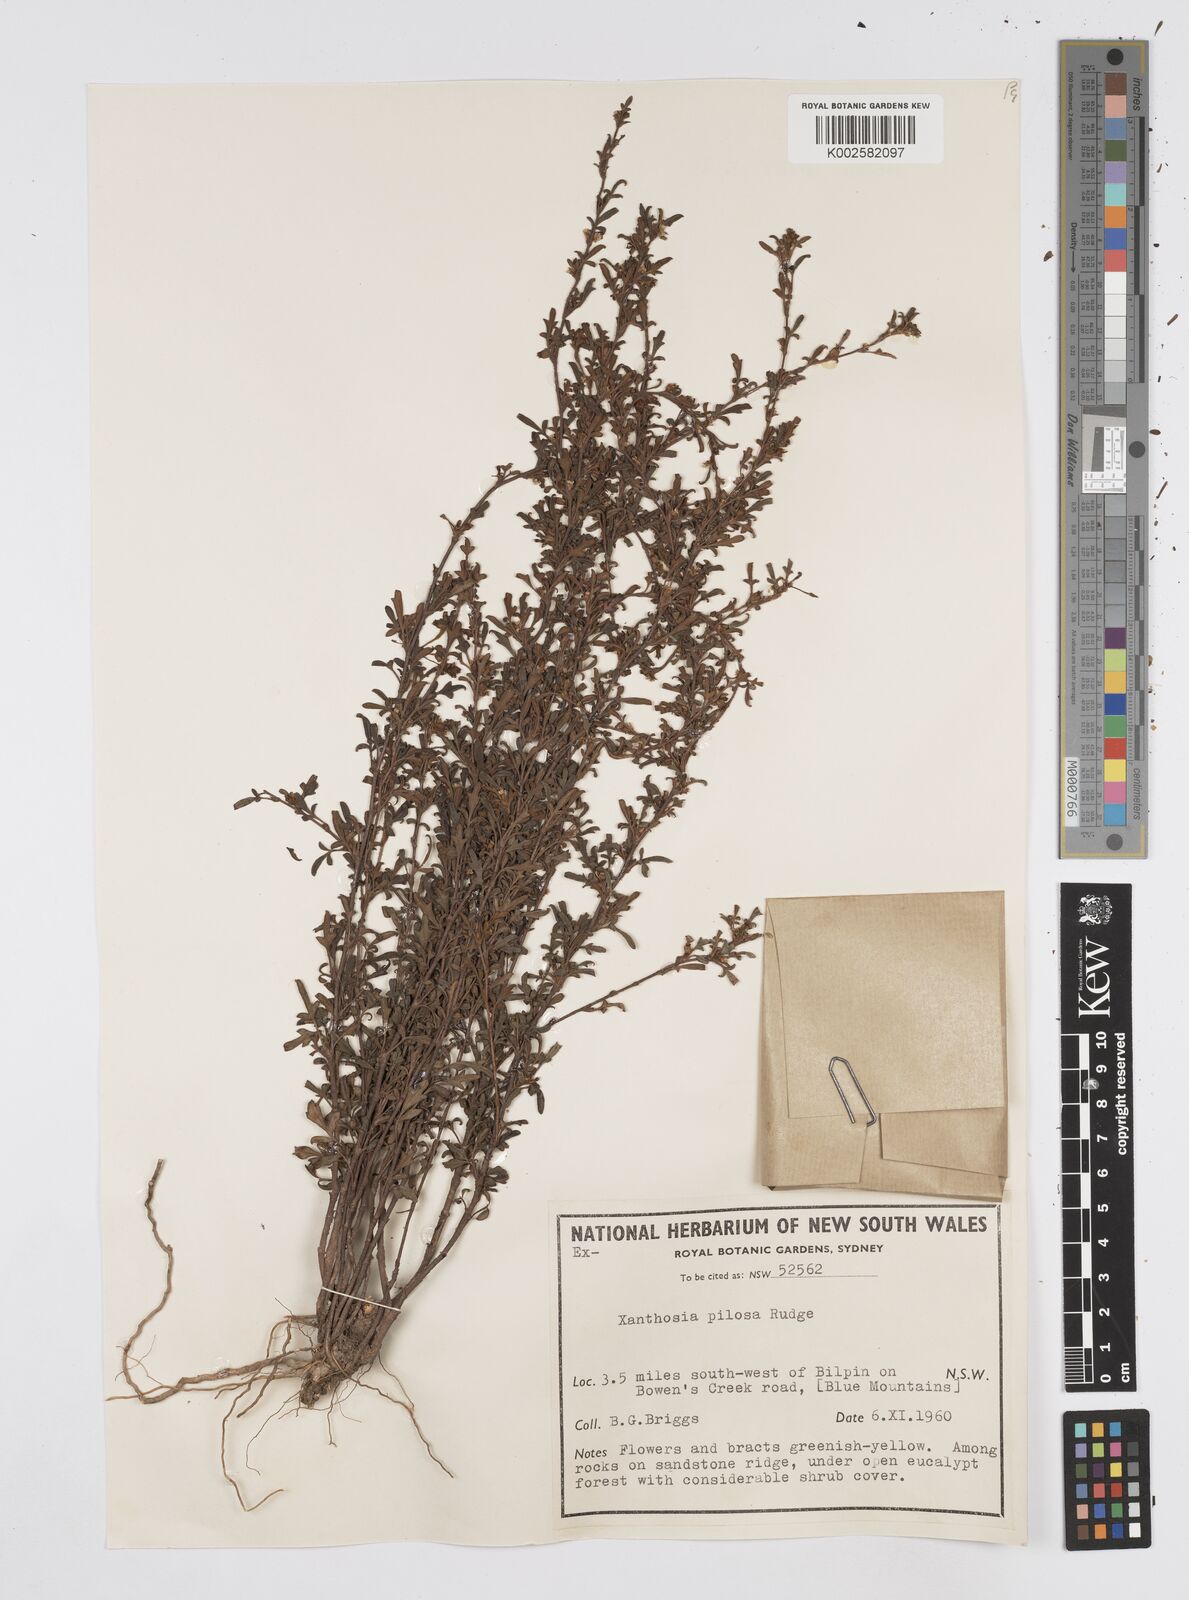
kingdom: Plantae
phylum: Tracheophyta
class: Magnoliopsida
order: Apiales
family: Apiaceae
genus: Xanthosia
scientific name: Xanthosia pilosa
